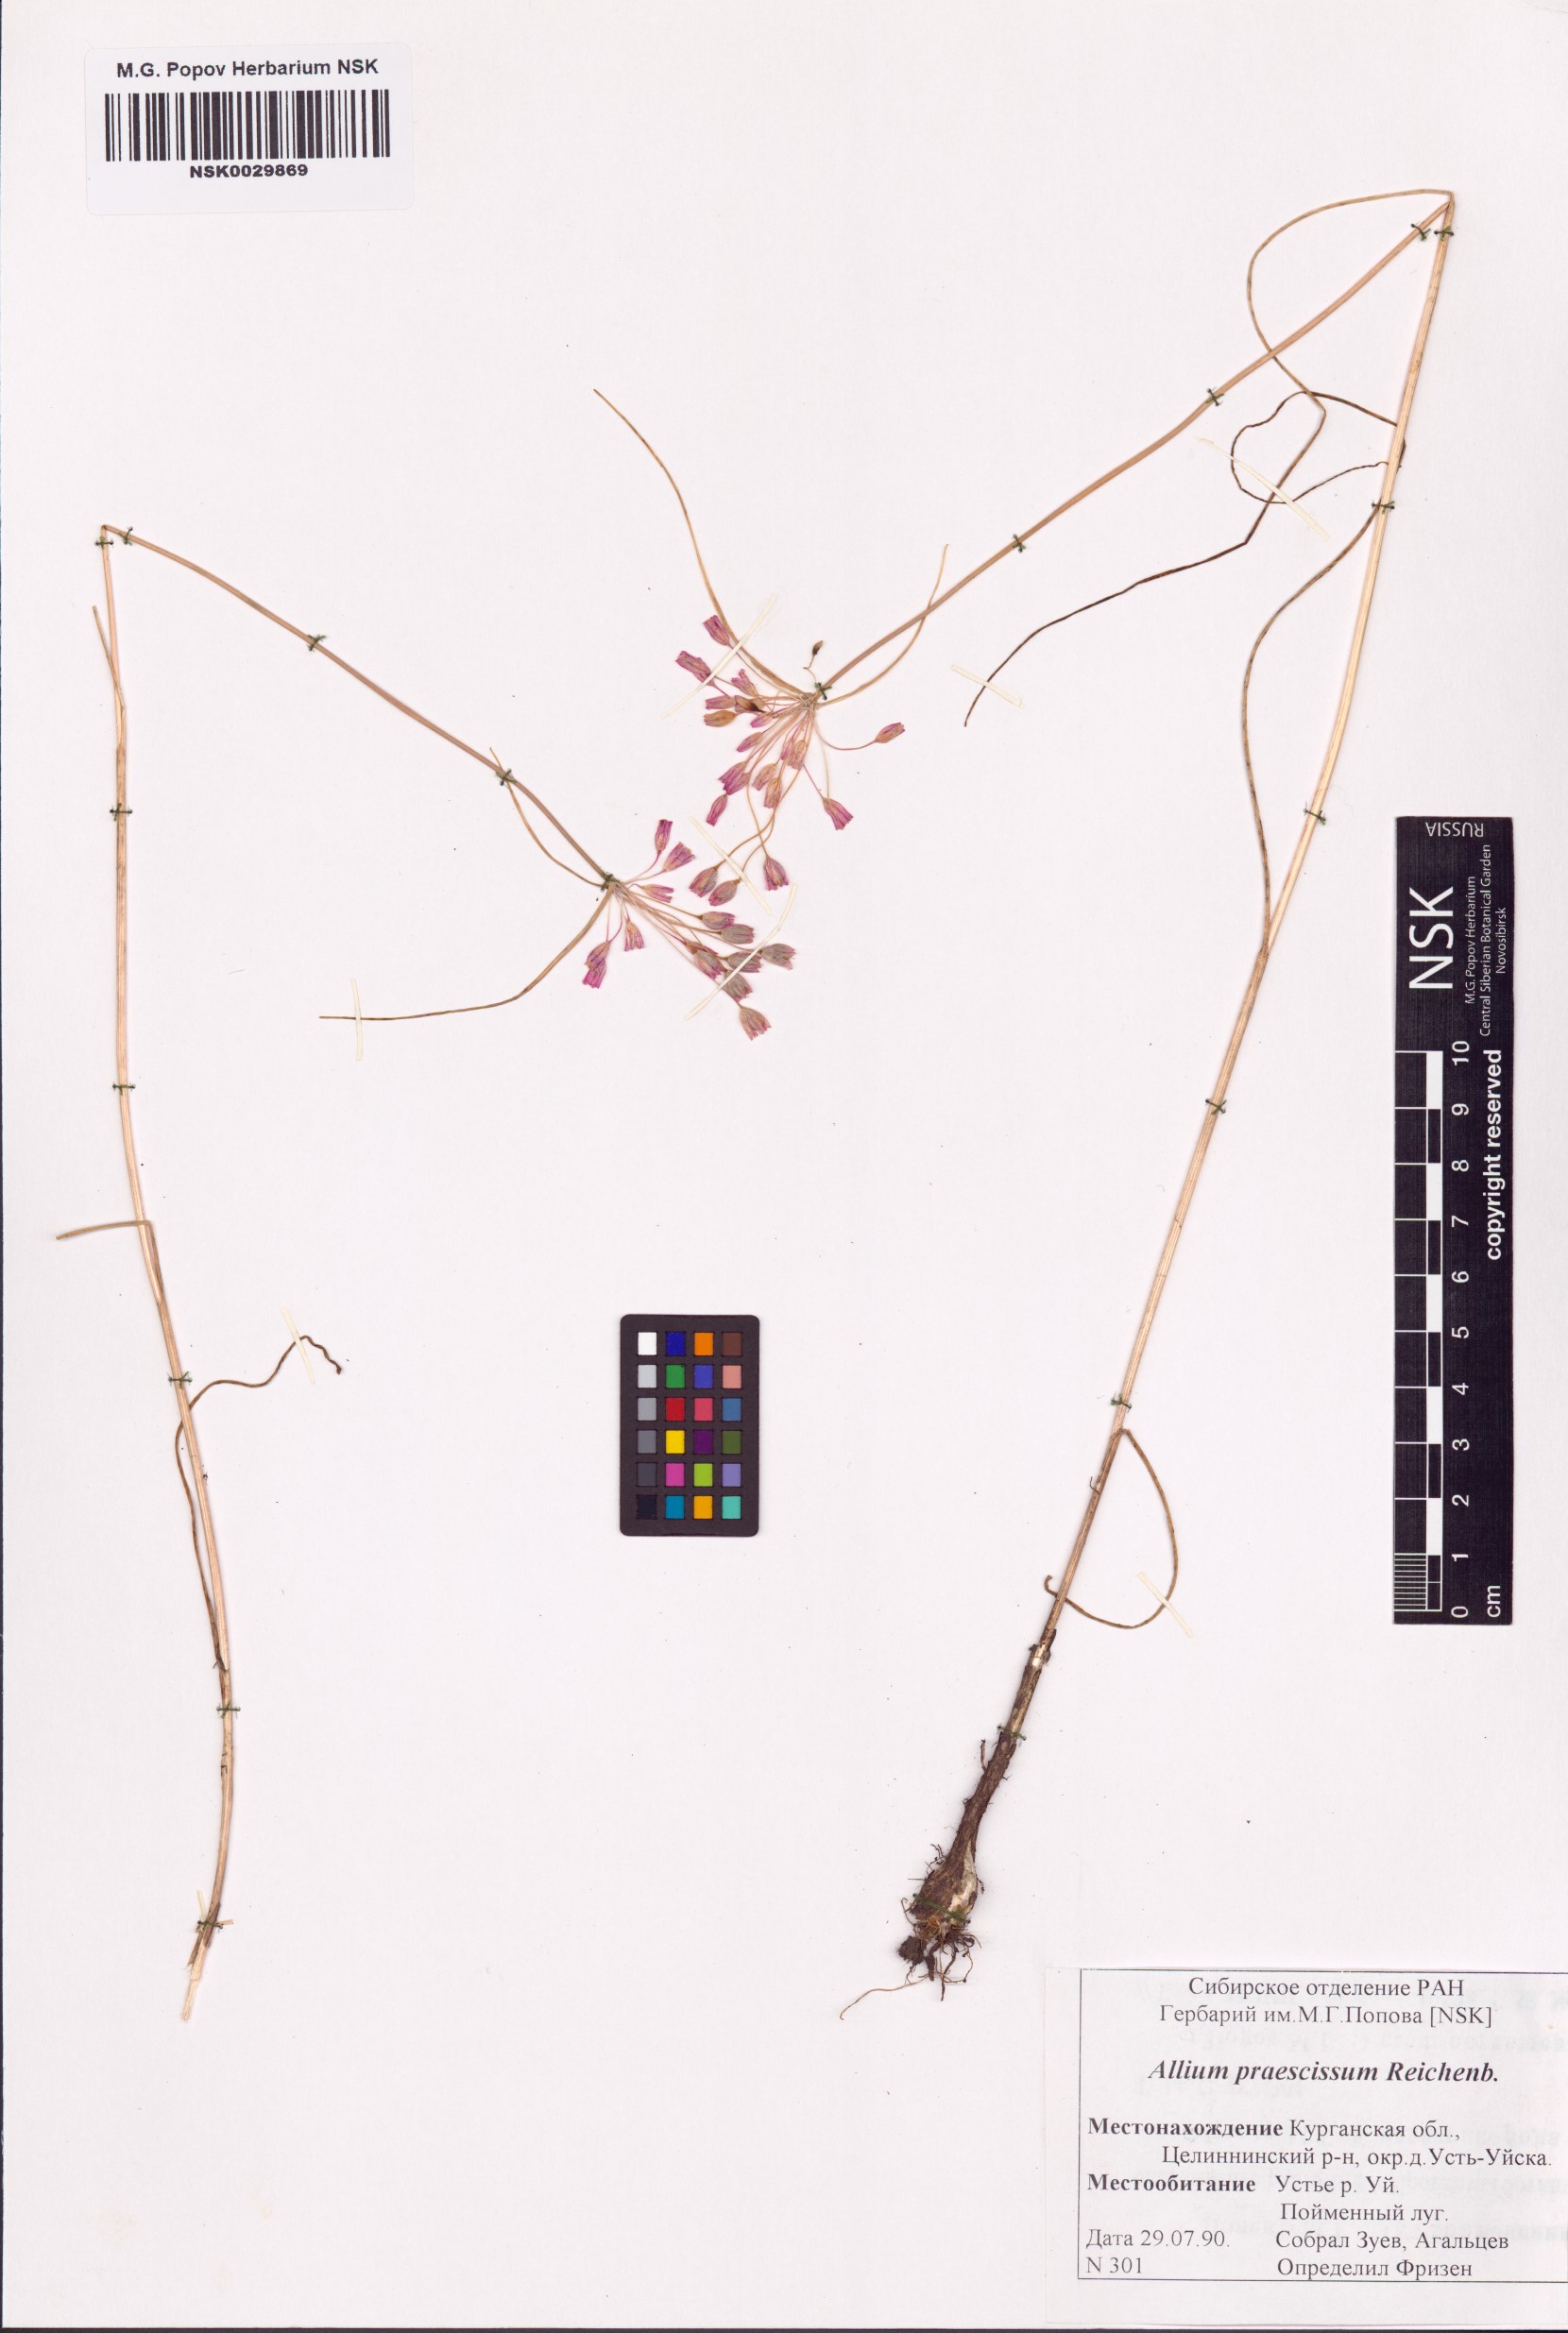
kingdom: Plantae
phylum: Tracheophyta
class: Liliopsida
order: Asparagales
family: Amaryllidaceae
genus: Allium
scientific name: Allium praescissum
